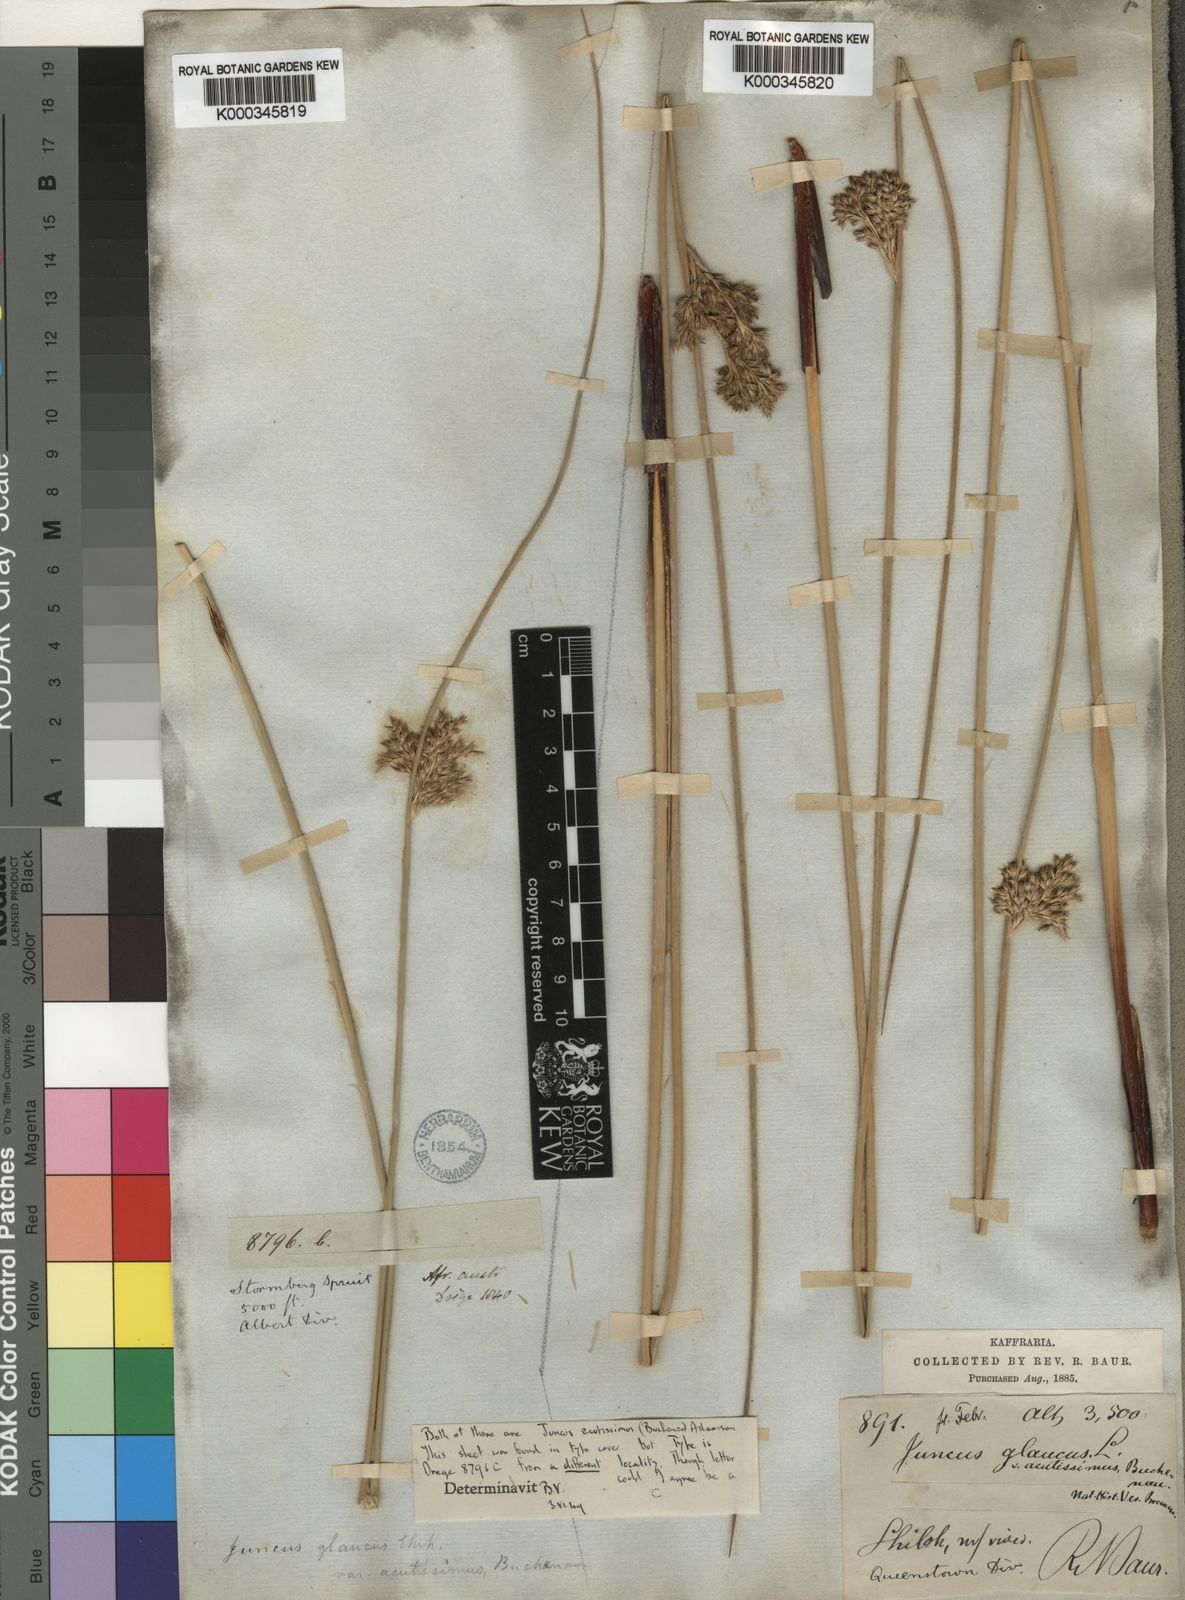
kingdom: Plantae
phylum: Tracheophyta
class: Liliopsida
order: Poales
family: Juncaceae
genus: Juncus
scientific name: Juncus inflexus
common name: Hard rush
